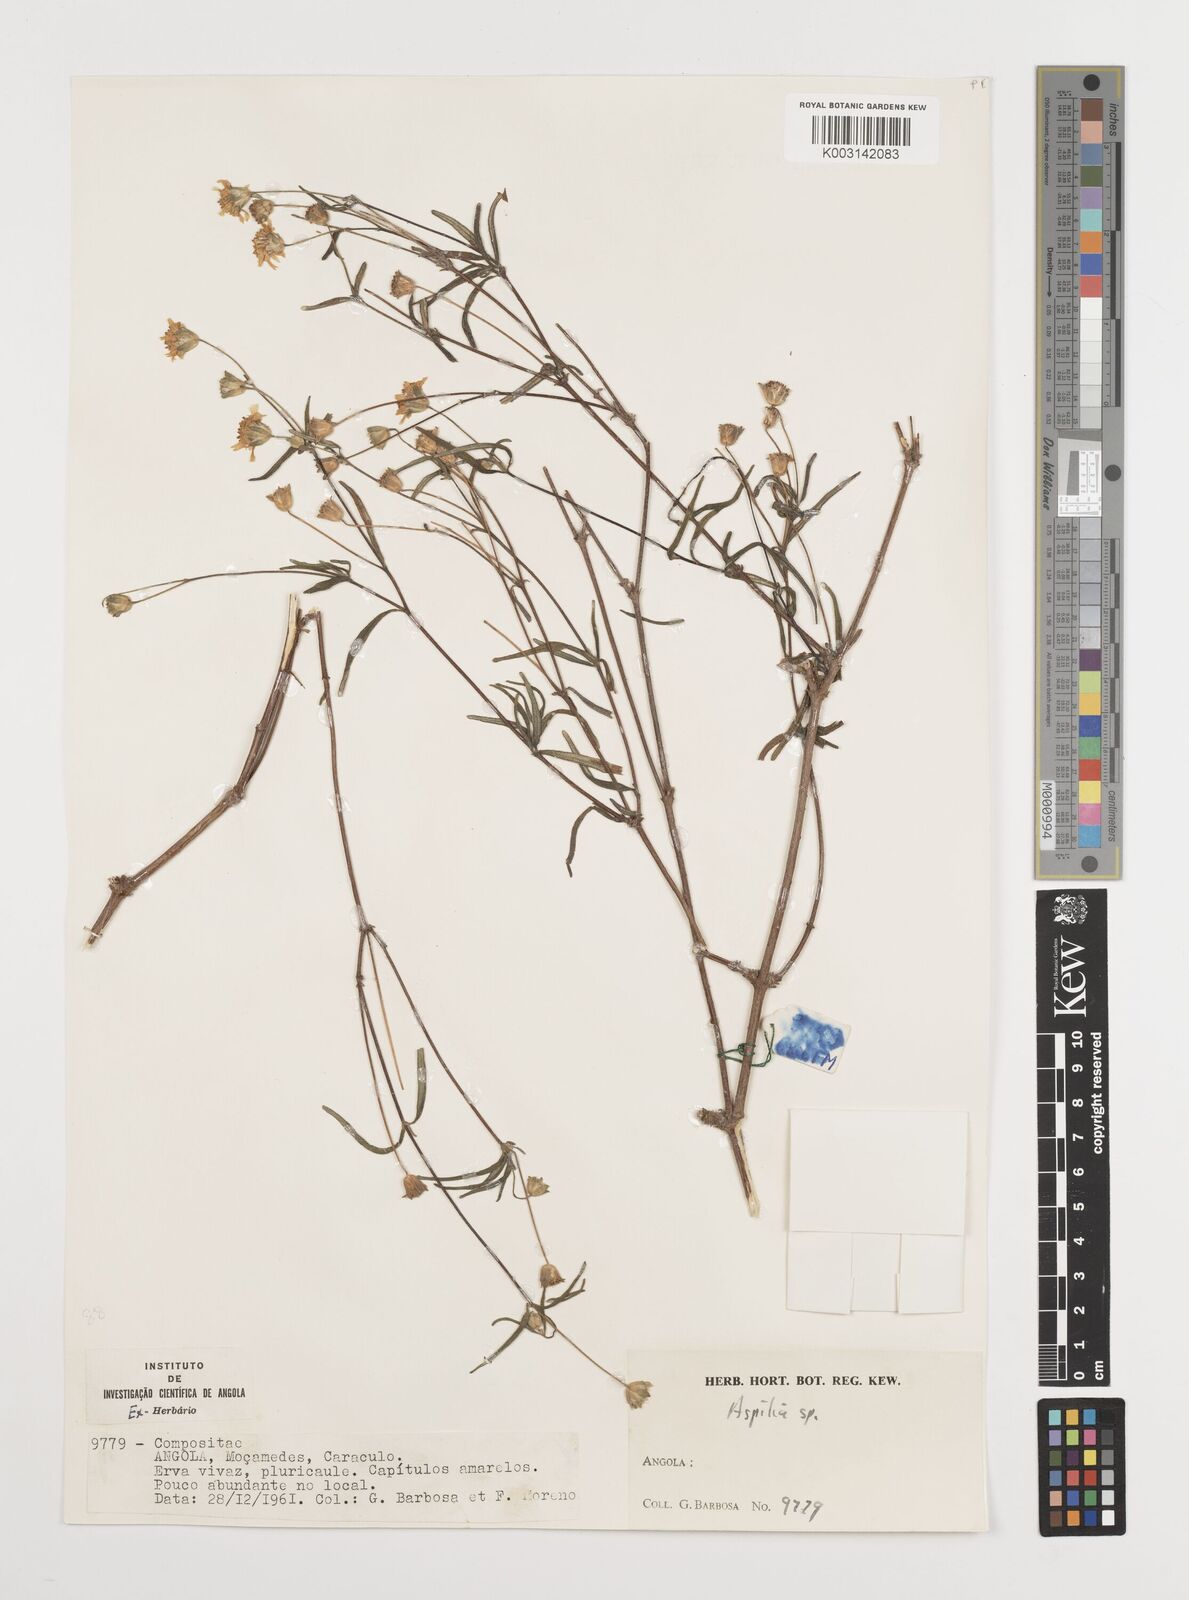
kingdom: Plantae
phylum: Tracheophyta
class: Magnoliopsida
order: Asterales
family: Asteraceae
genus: Aspilia
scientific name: Aspilia angolensis
